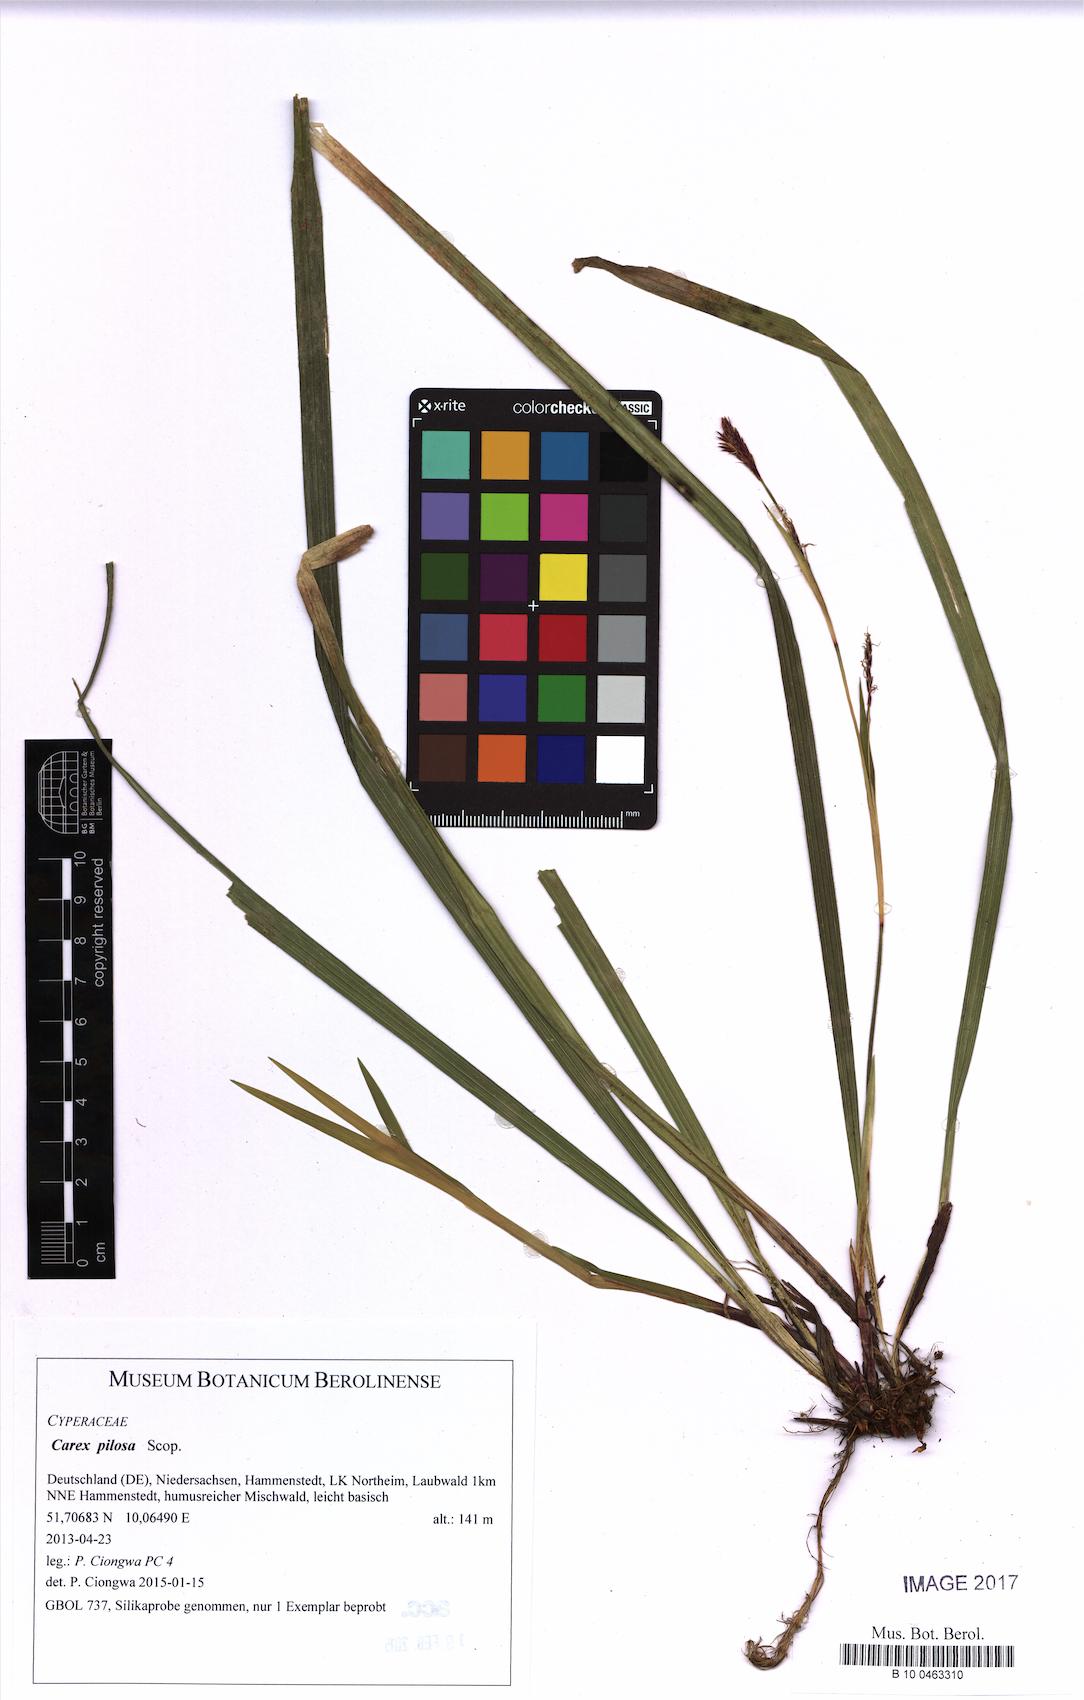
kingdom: Plantae
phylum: Tracheophyta
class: Liliopsida
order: Poales
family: Cyperaceae
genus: Carex
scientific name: Carex pilosa
